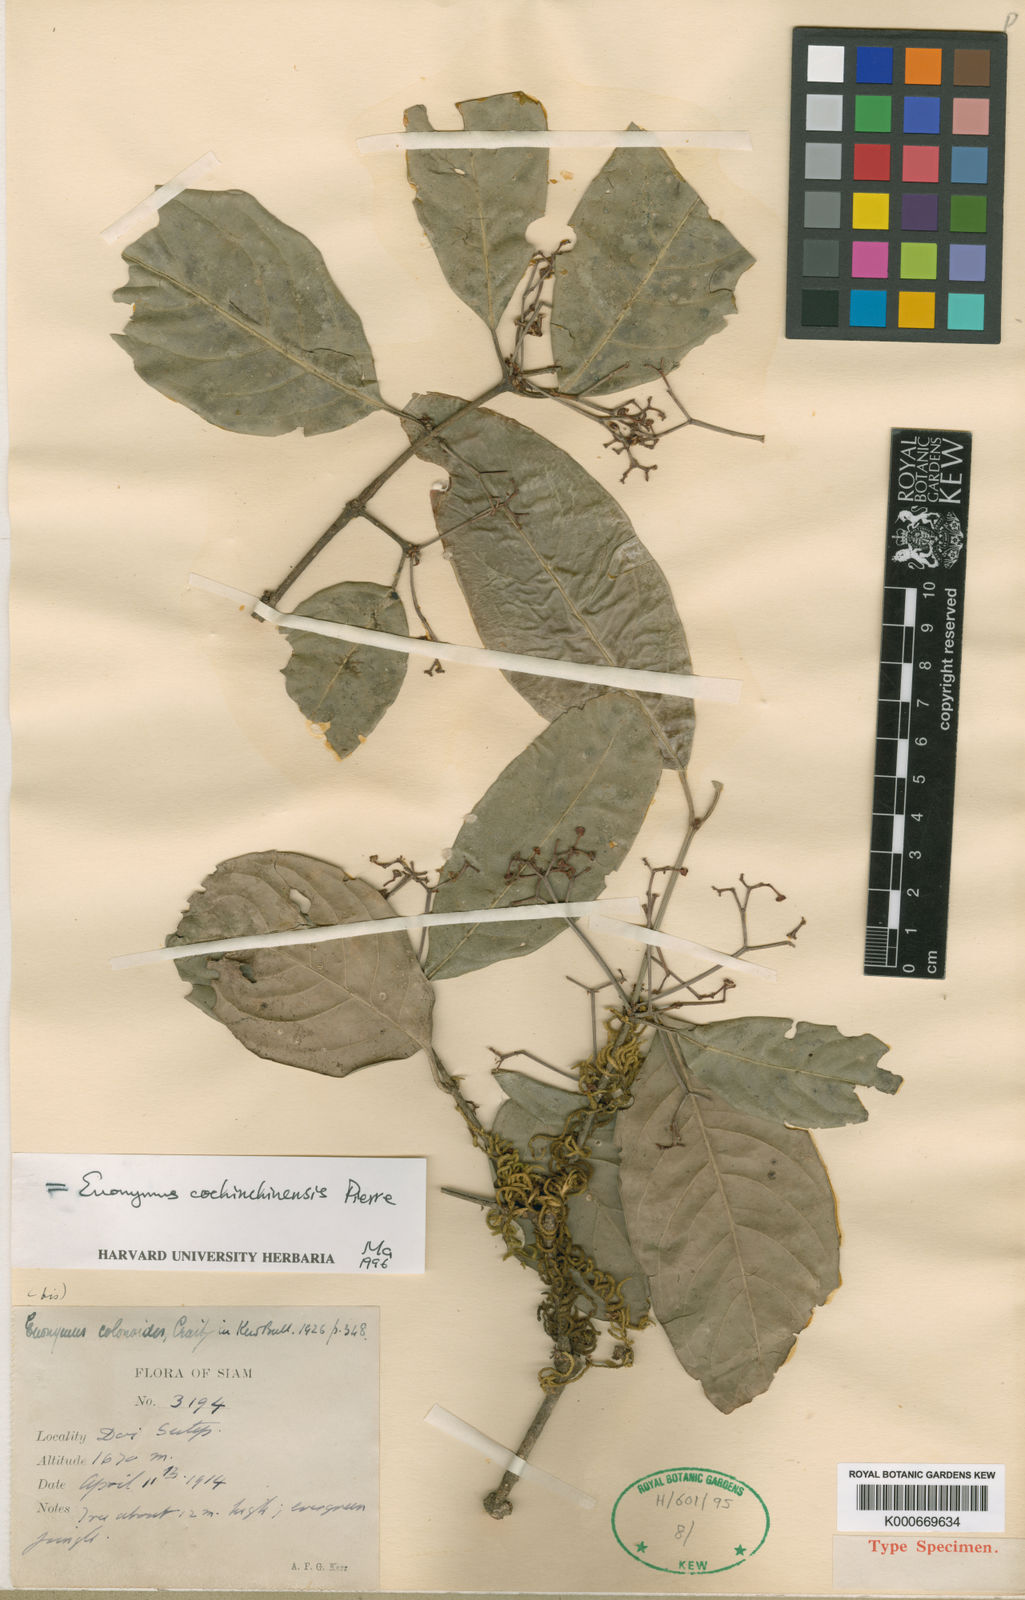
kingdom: Plantae
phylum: Tracheophyta
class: Magnoliopsida
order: Celastrales
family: Celastraceae
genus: Euonymus
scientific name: Euonymus cochinchinensis
